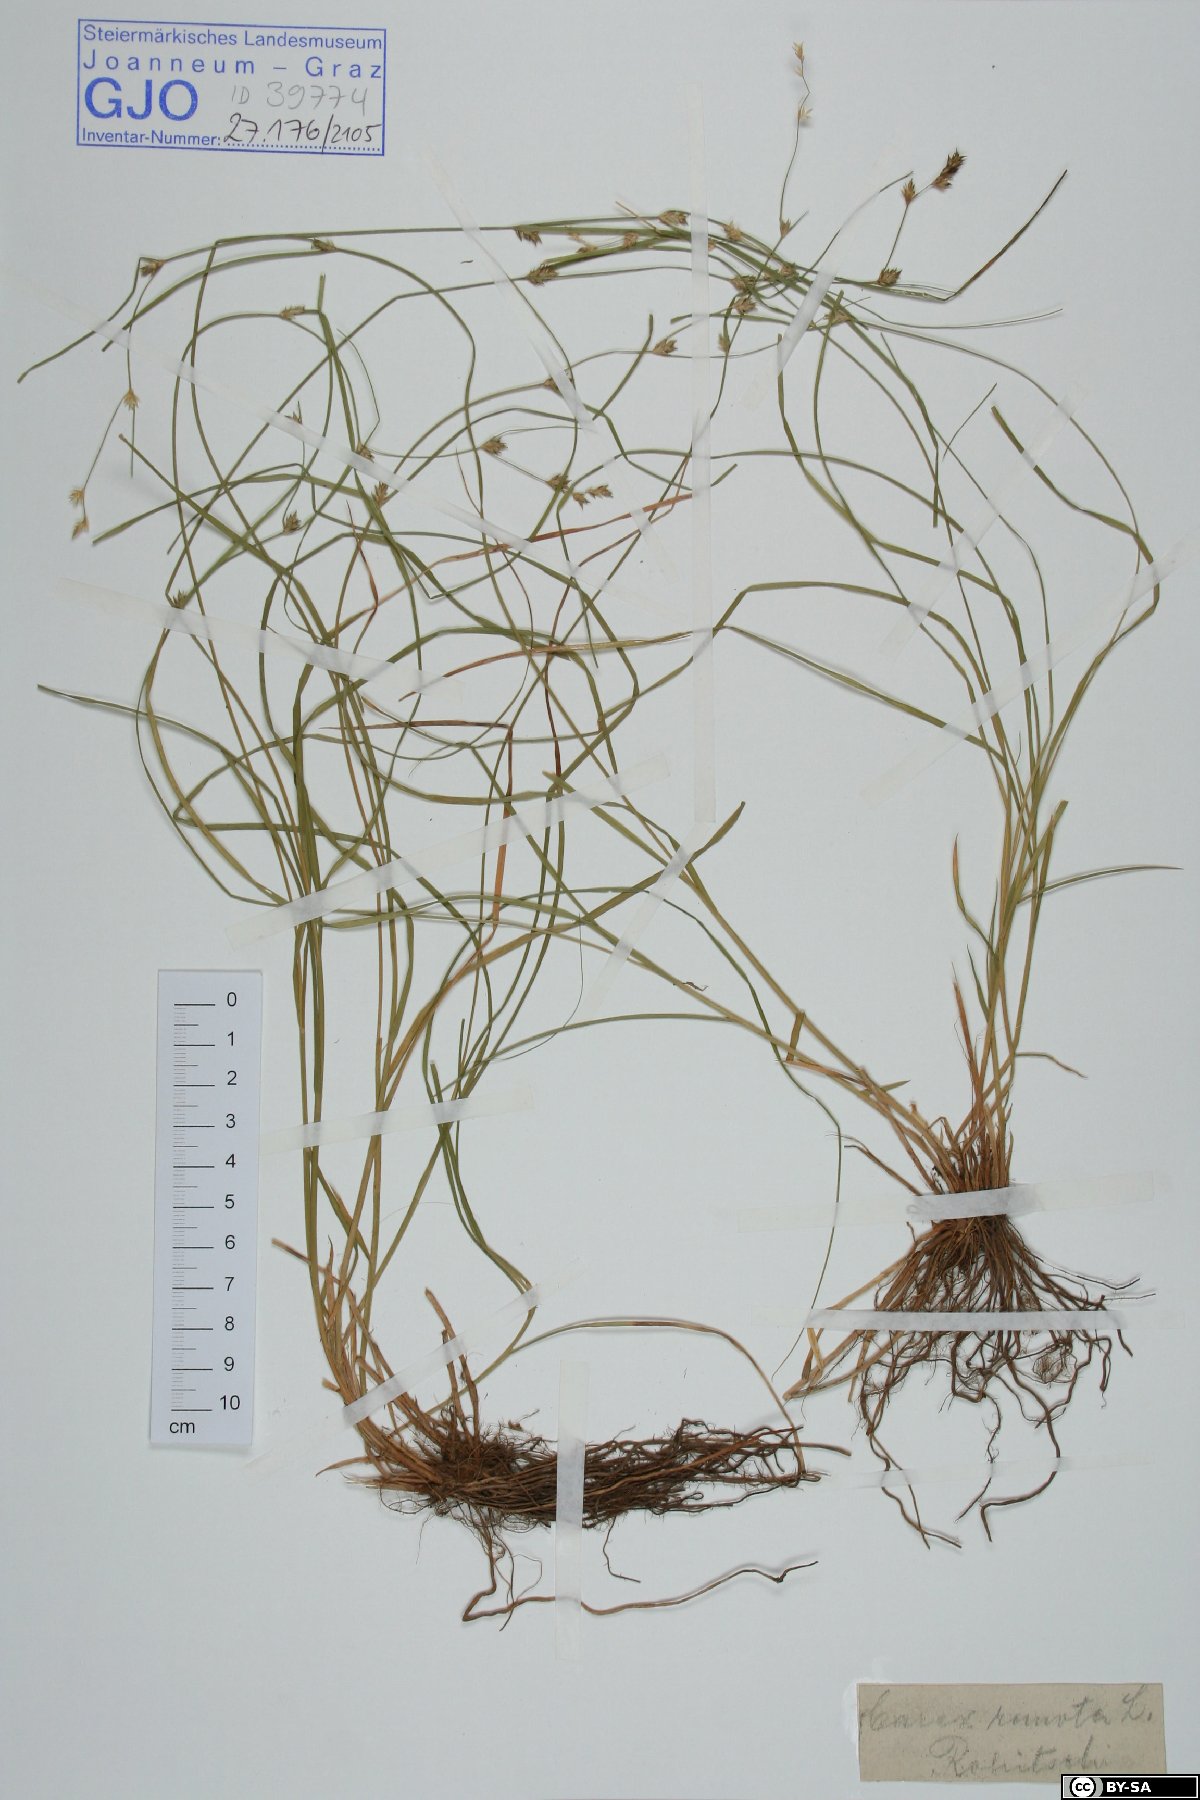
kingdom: Plantae
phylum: Tracheophyta
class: Liliopsida
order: Poales
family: Cyperaceae
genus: Carex
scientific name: Carex remota
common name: Remote sedge
